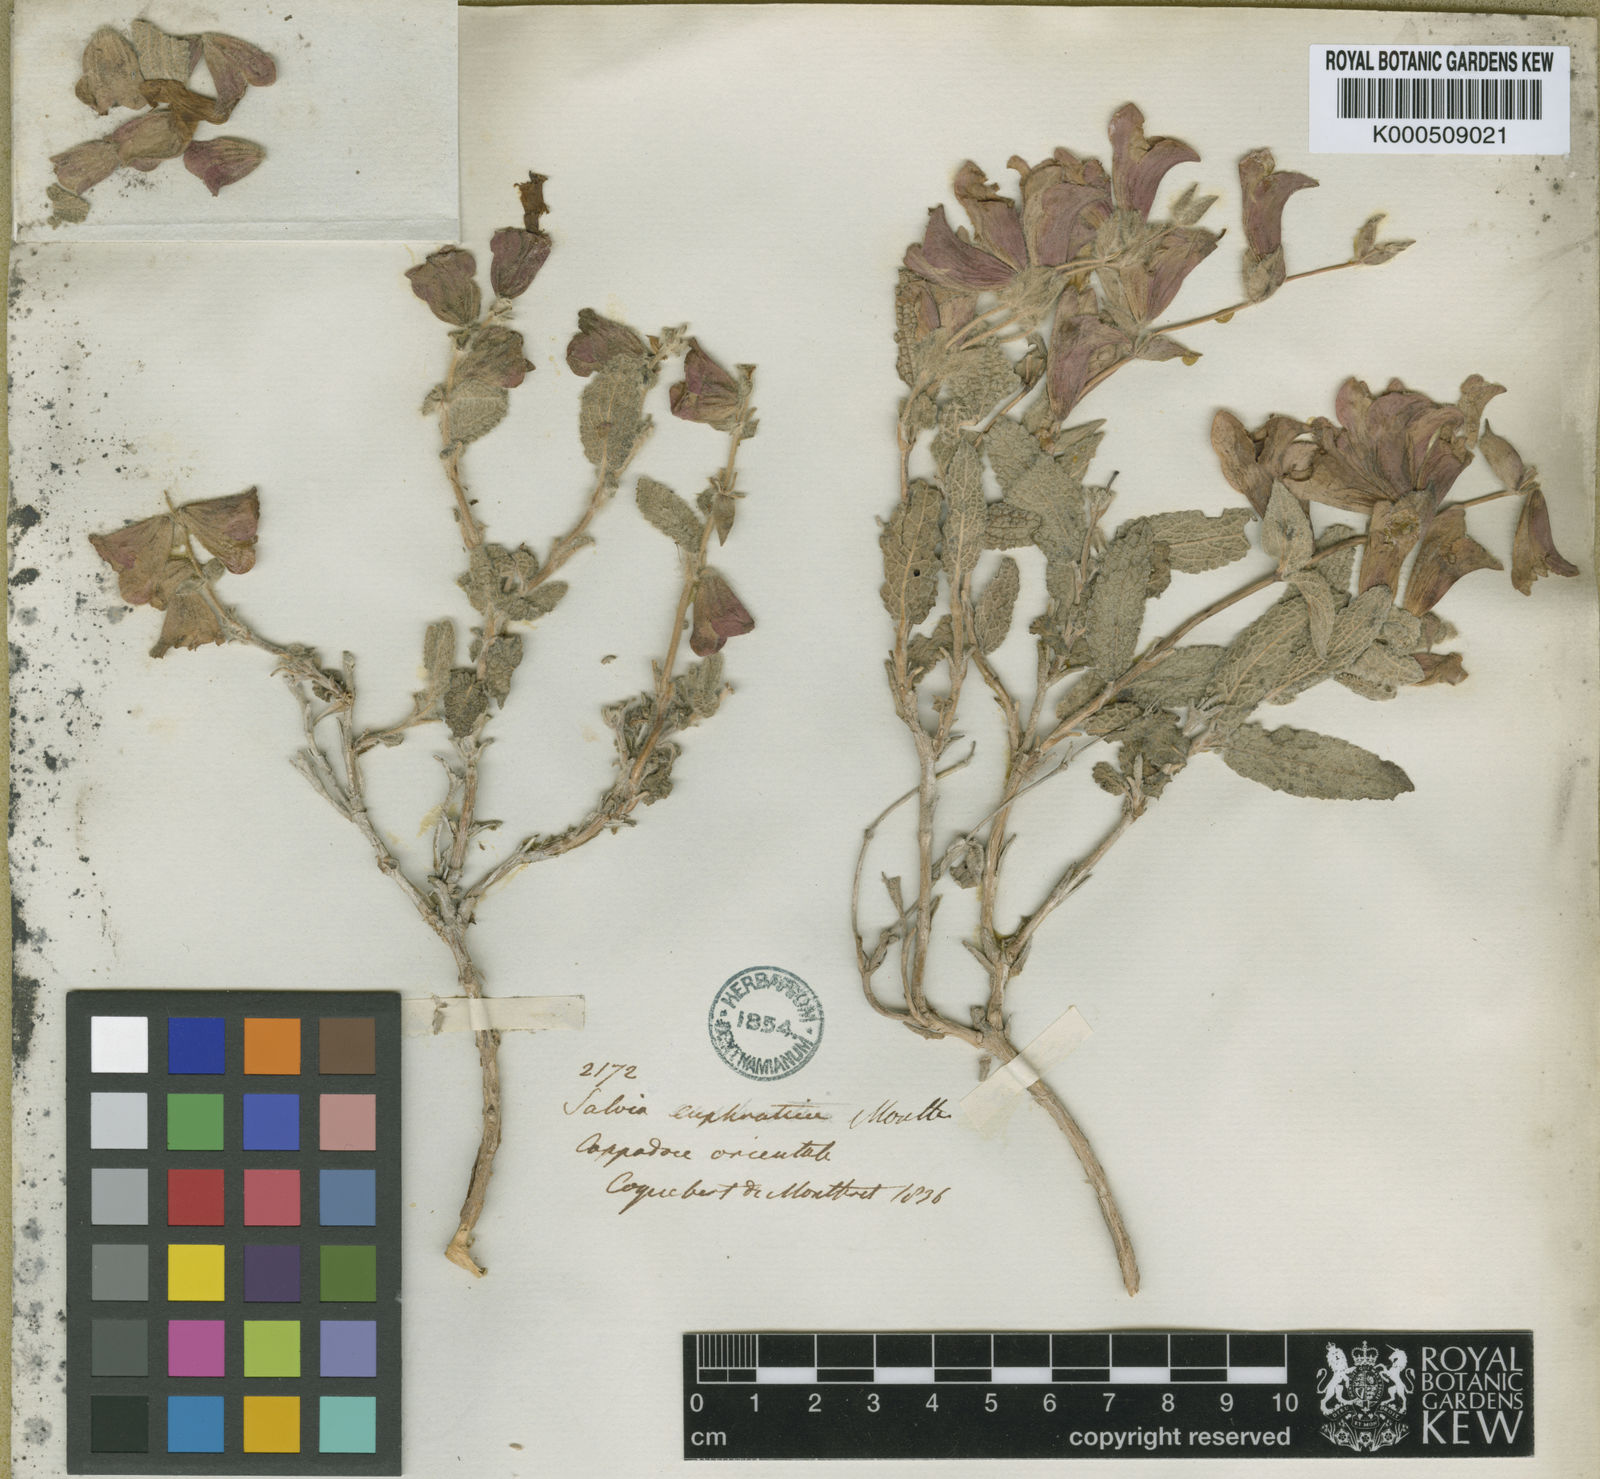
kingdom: Plantae
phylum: Tracheophyta
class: Magnoliopsida
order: Lamiales
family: Lamiaceae
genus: Salvia
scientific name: Salvia euphratica
